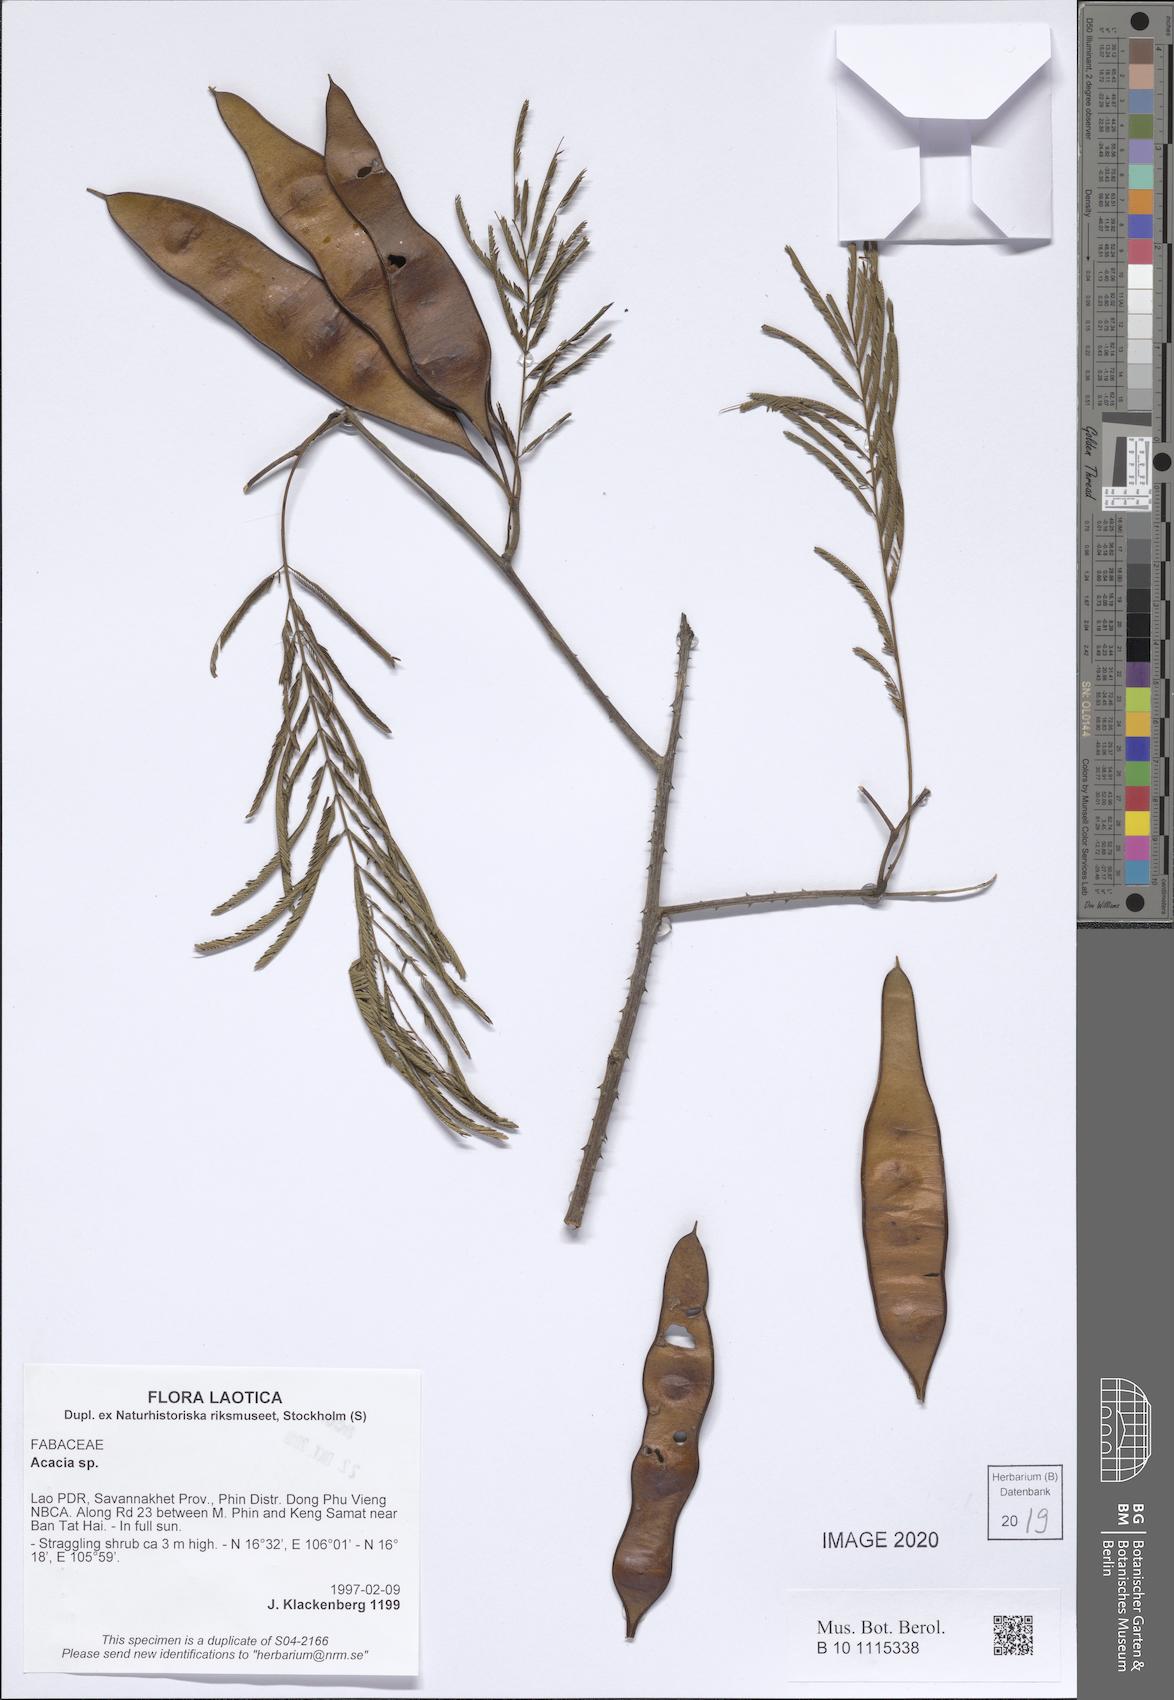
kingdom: Plantae
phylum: Tracheophyta
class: Magnoliopsida
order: Fabales
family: Fabaceae
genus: Acacia
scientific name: Acacia
